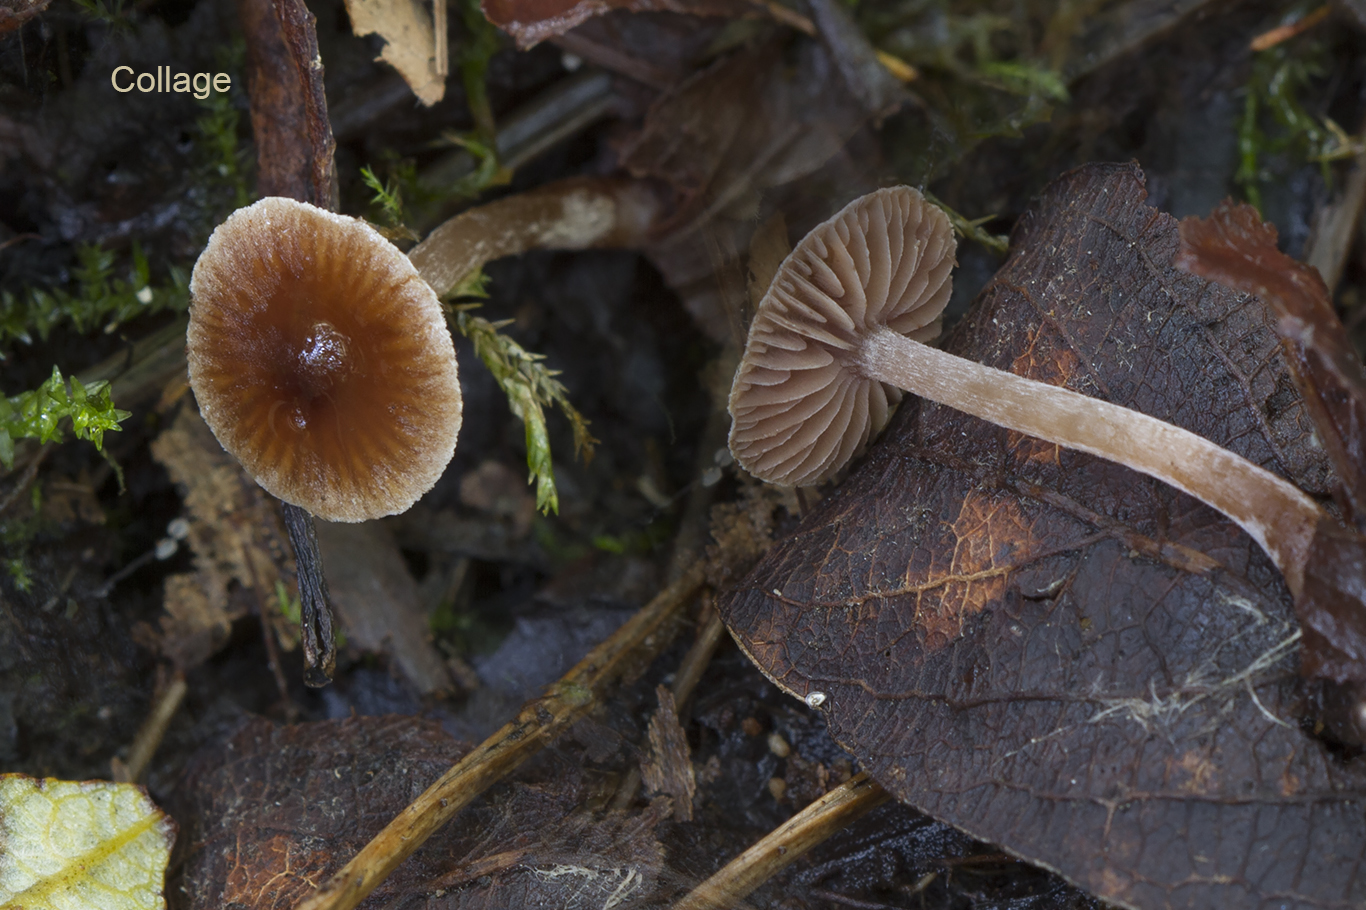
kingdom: Fungi
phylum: Basidiomycota
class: Agaricomycetes
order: Agaricales
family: Cortinariaceae
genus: Cortinarius
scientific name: Cortinarius paululus
